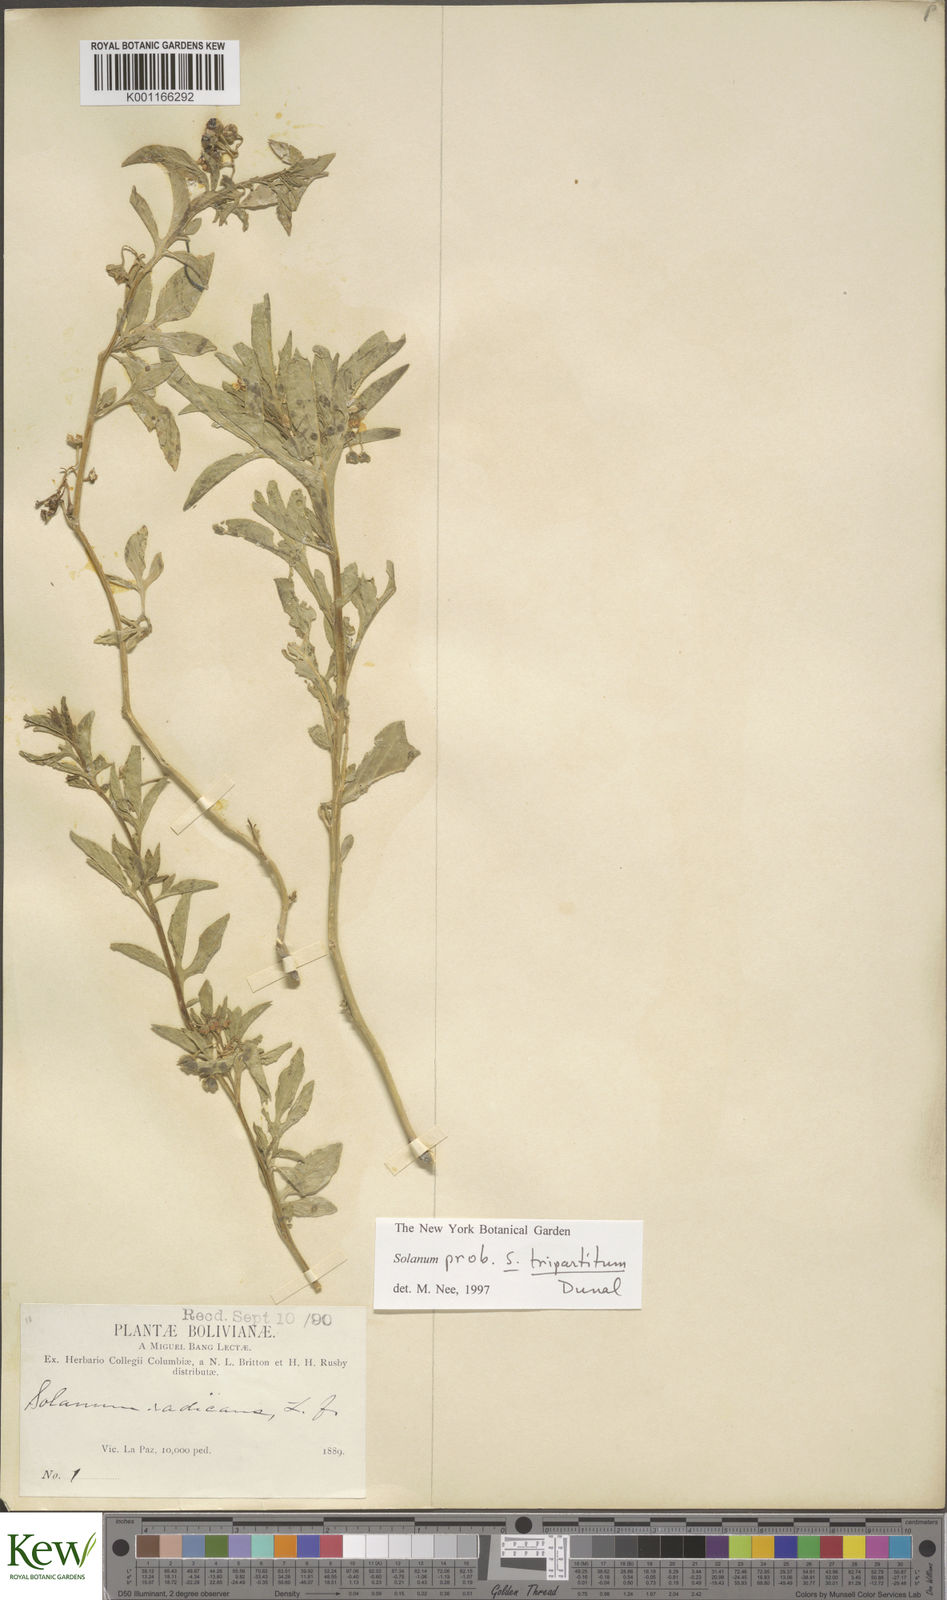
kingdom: Plantae
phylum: Tracheophyta
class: Magnoliopsida
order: Solanales
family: Solanaceae
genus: Solanum
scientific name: Solanum tripartitum
